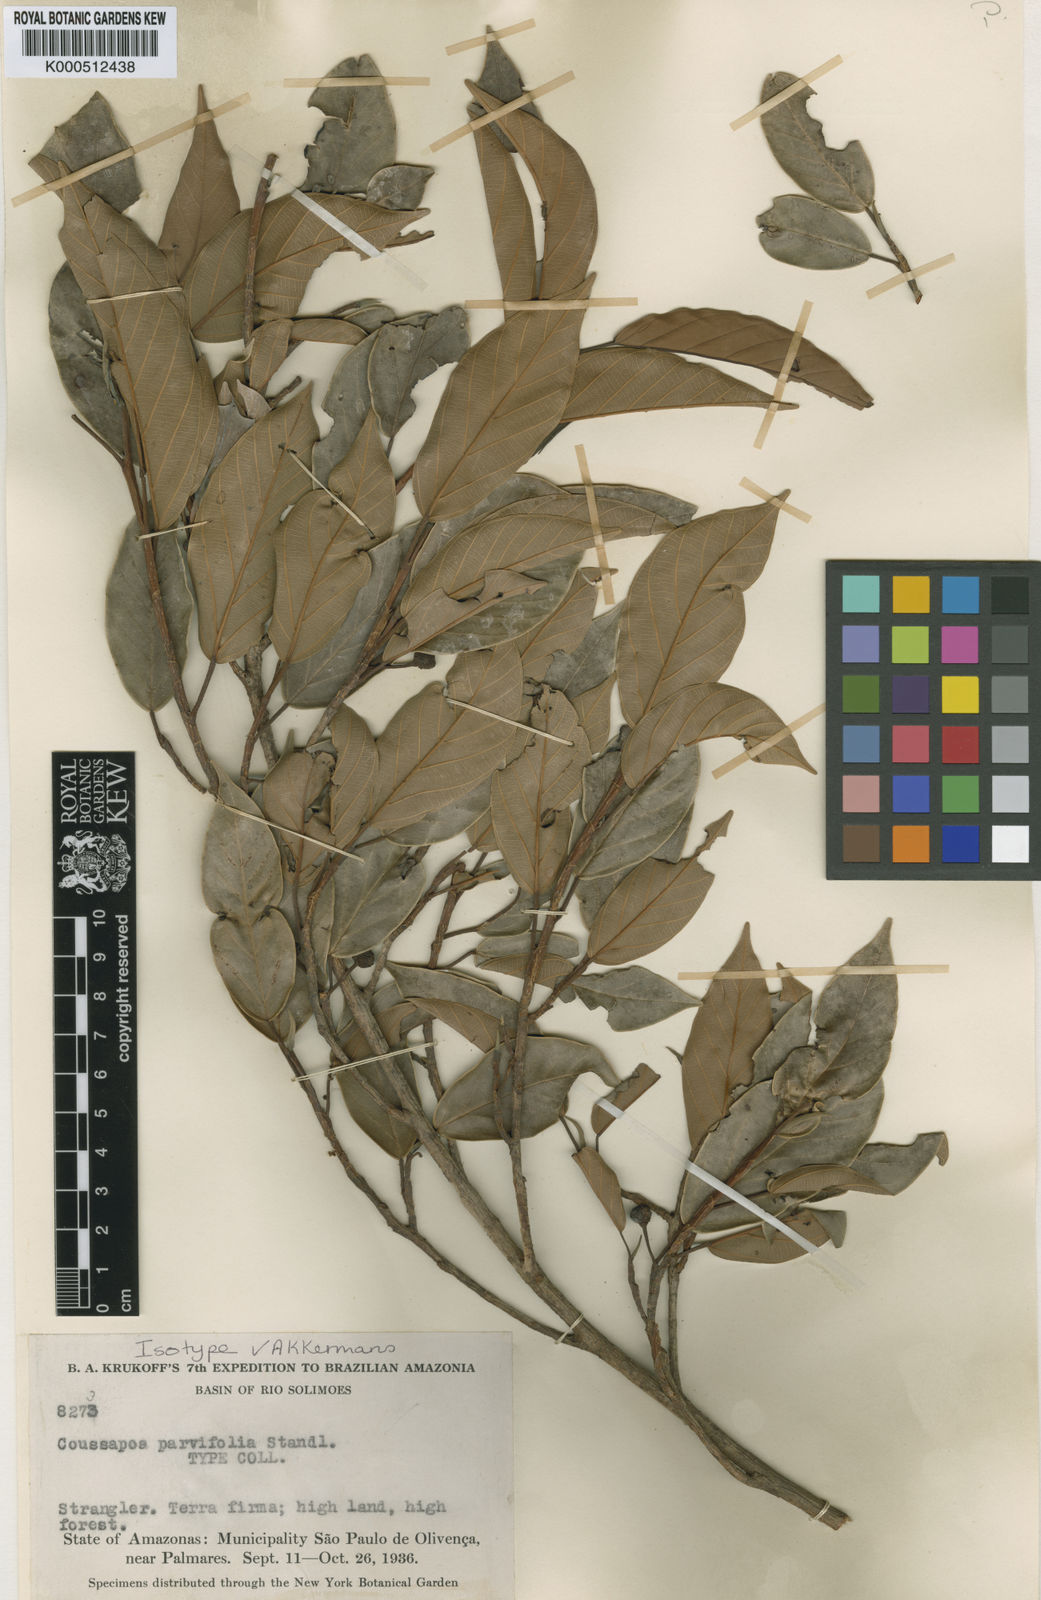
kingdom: Plantae
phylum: Tracheophyta
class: Magnoliopsida
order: Rosales
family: Urticaceae
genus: Coussapoa
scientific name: Coussapoa parvifolia
